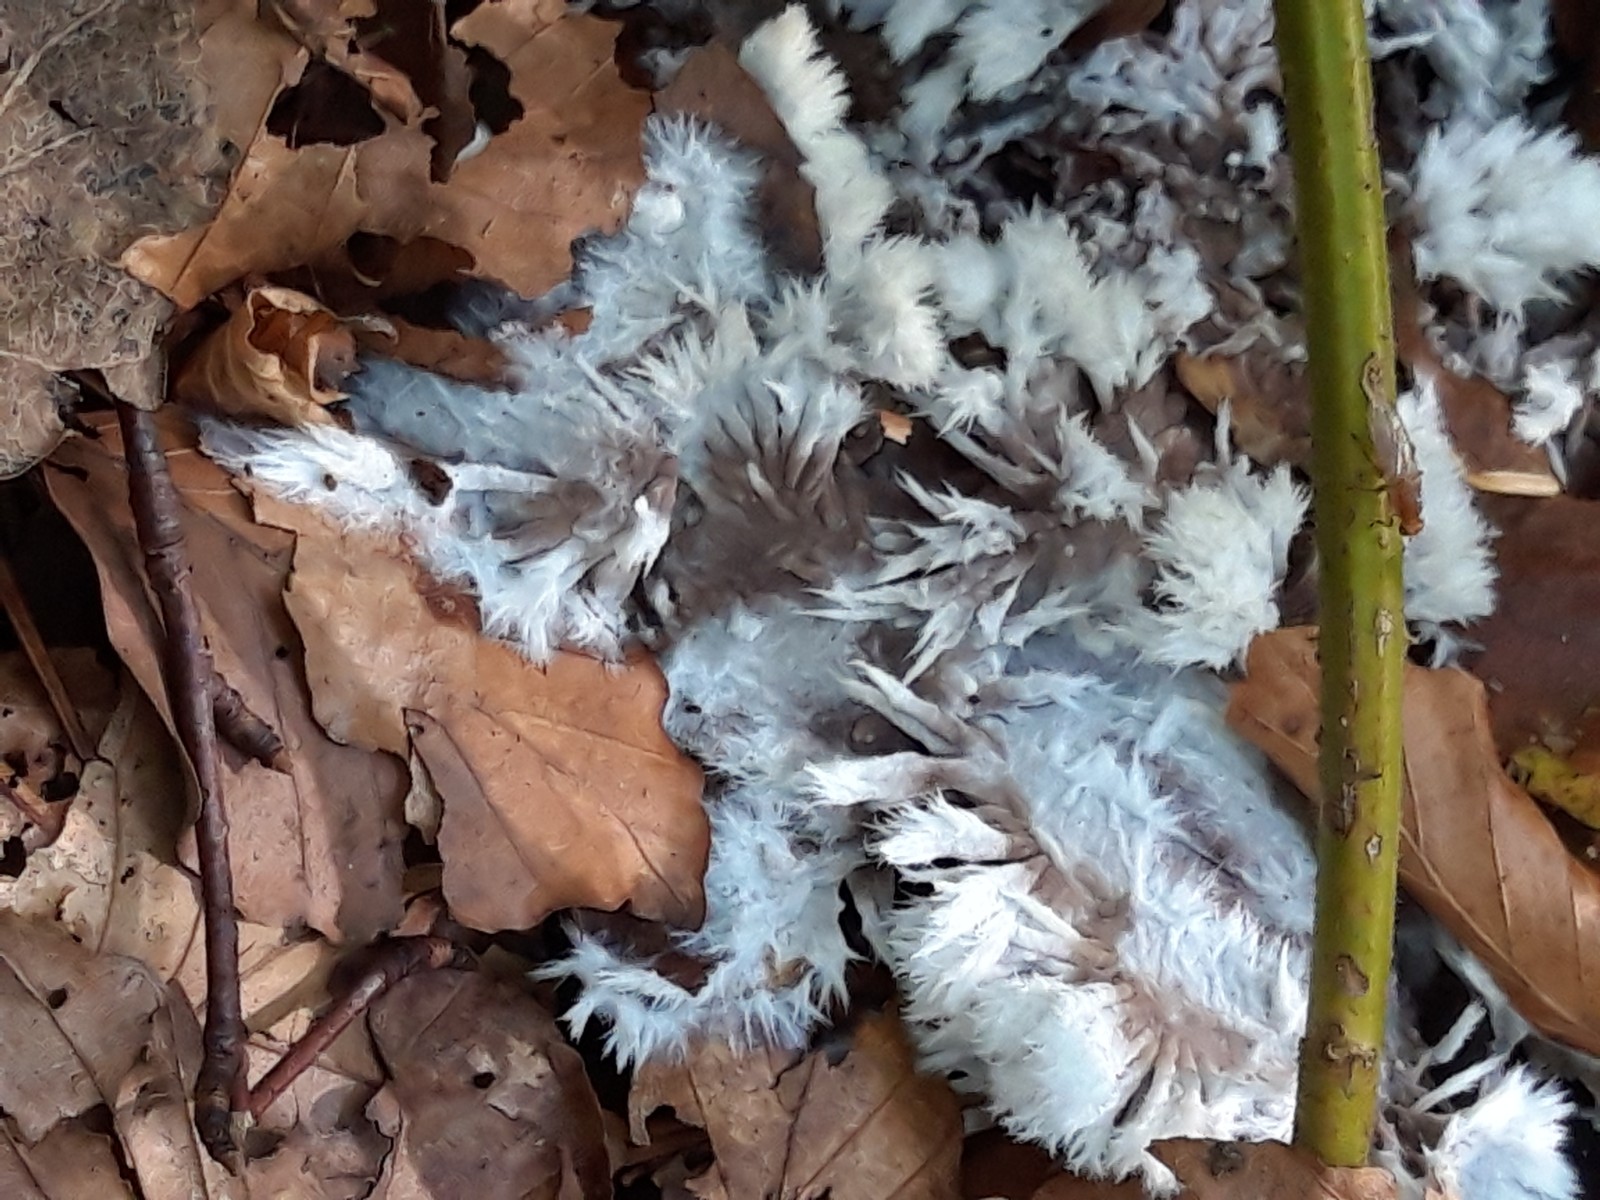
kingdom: Fungi
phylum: Basidiomycota
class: Agaricomycetes
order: Thelephorales
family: Thelephoraceae
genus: Thelephora
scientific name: Thelephora penicillata
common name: fladtrådt frynsesvamp
